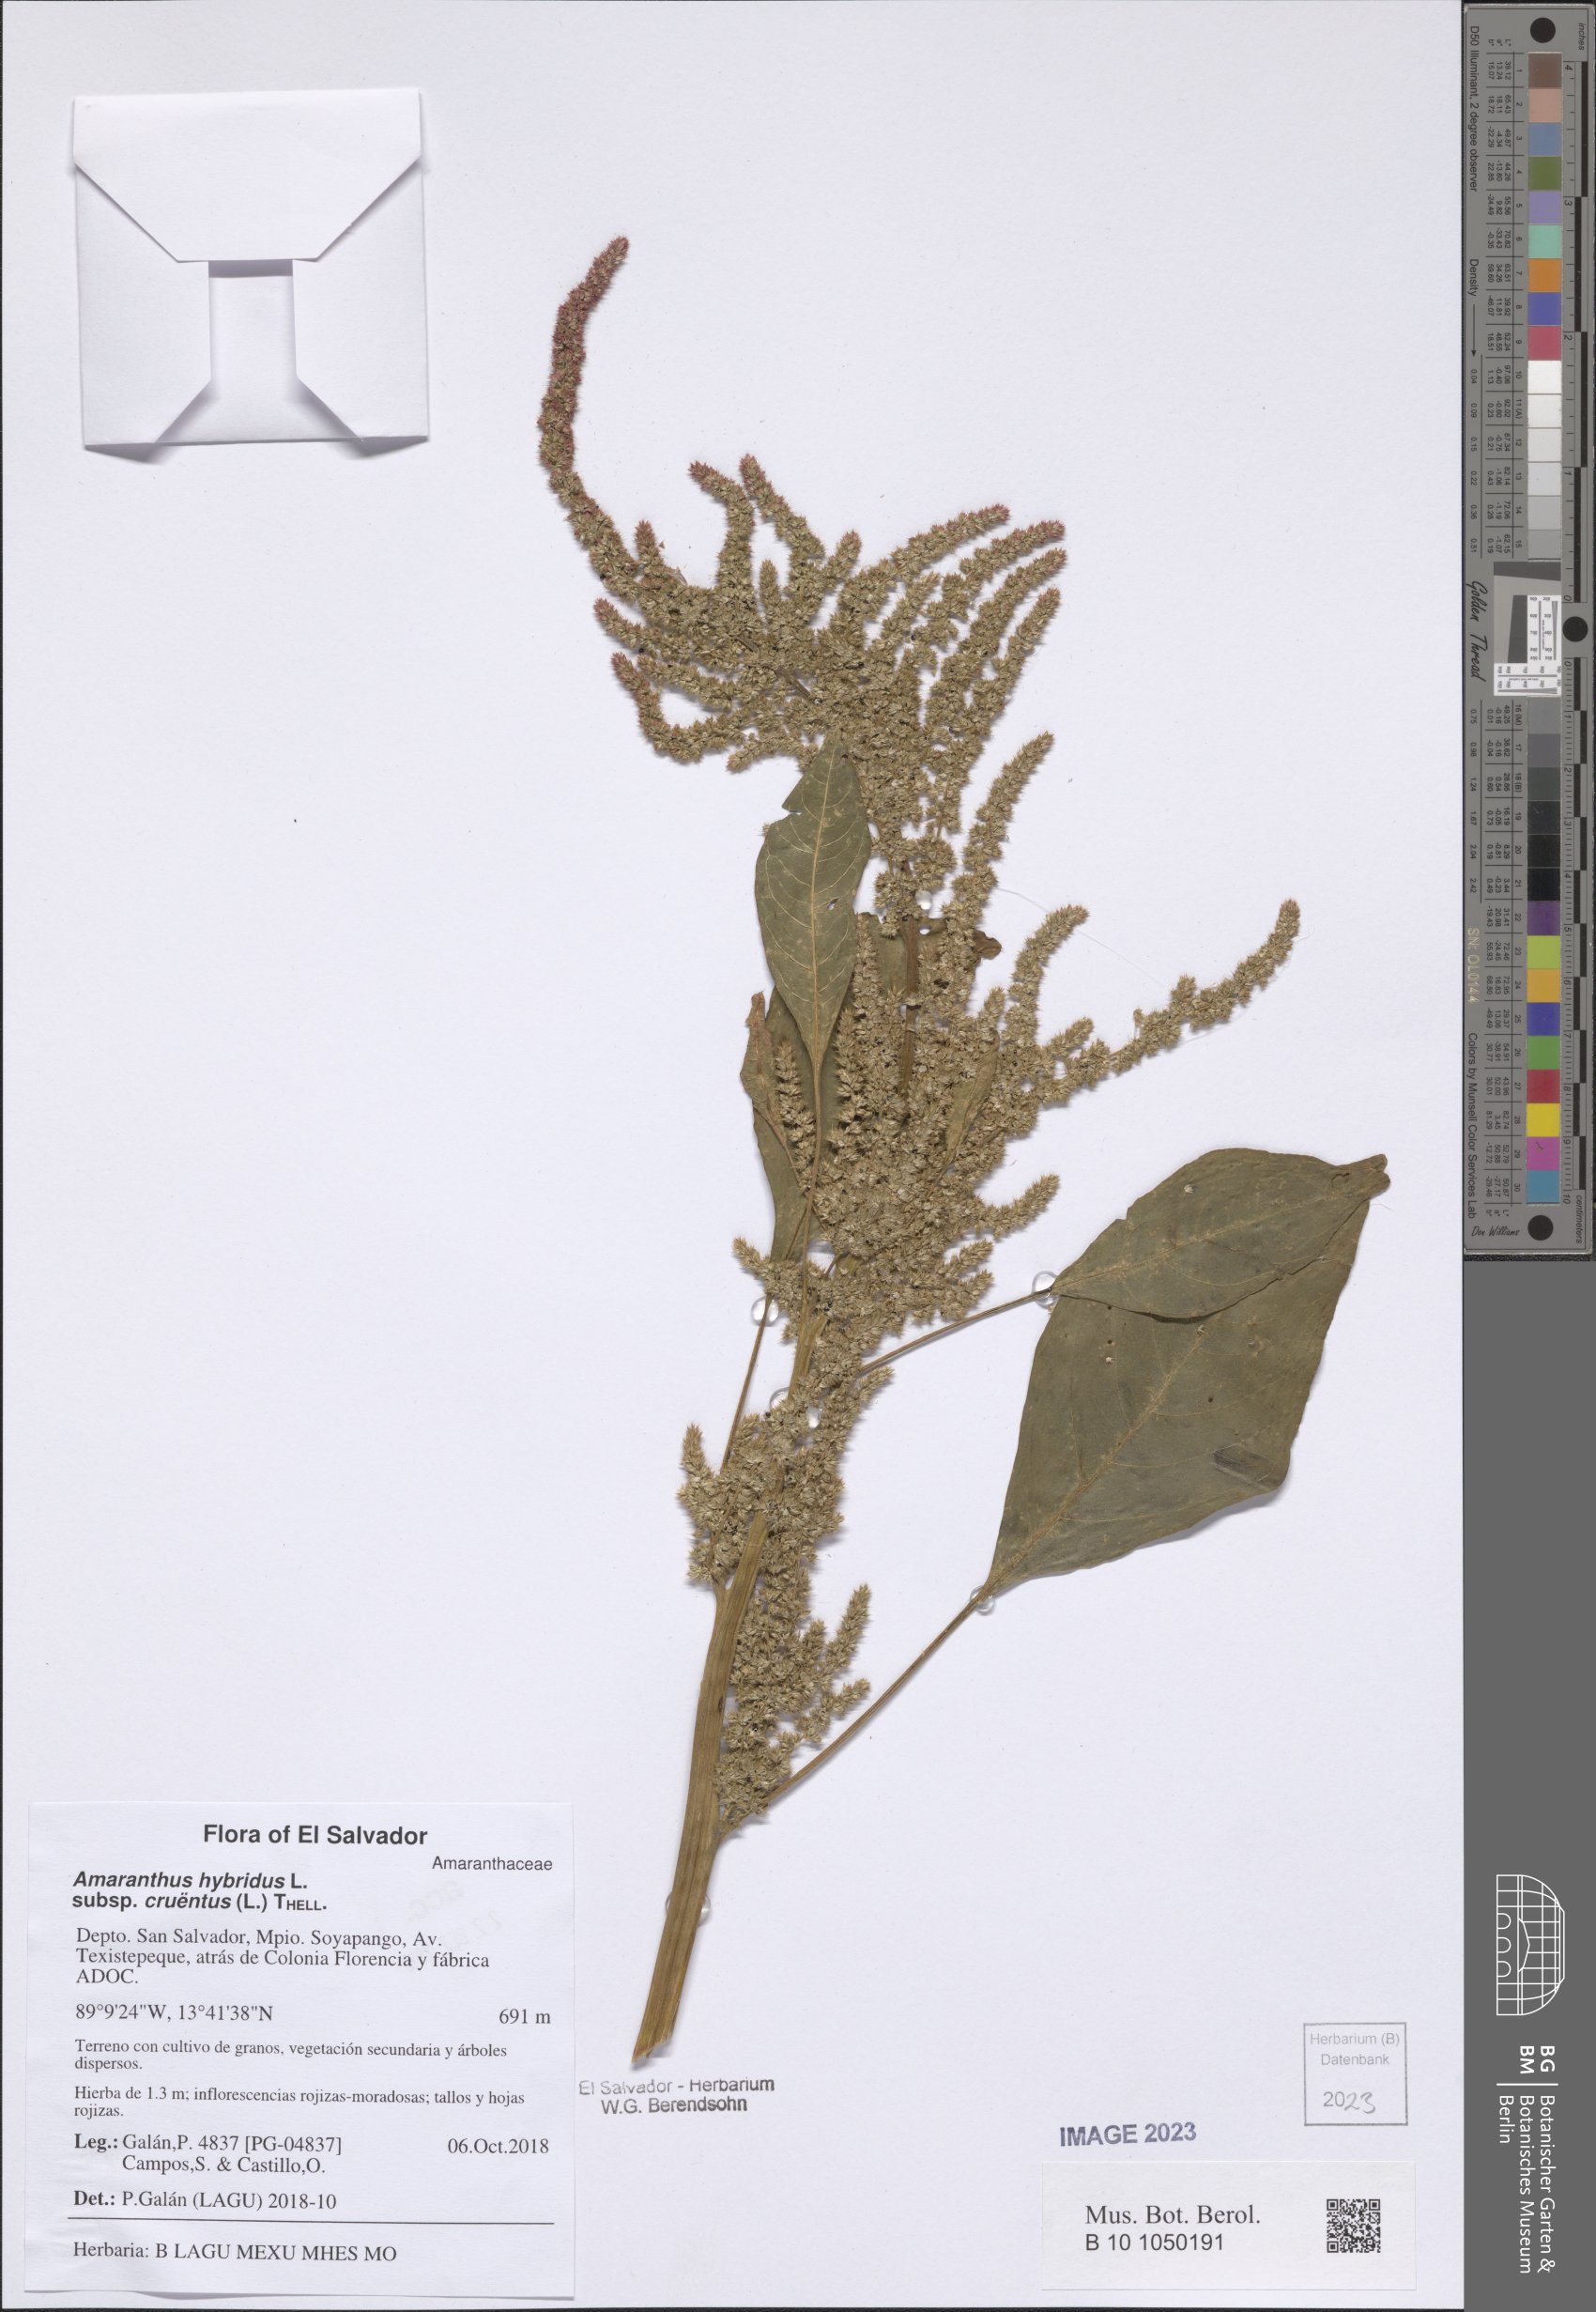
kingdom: Plantae
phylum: Tracheophyta
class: Magnoliopsida
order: Caryophyllales
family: Amaranthaceae
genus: Amaranthus
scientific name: Amaranthus cruentus
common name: Purple amaranth
